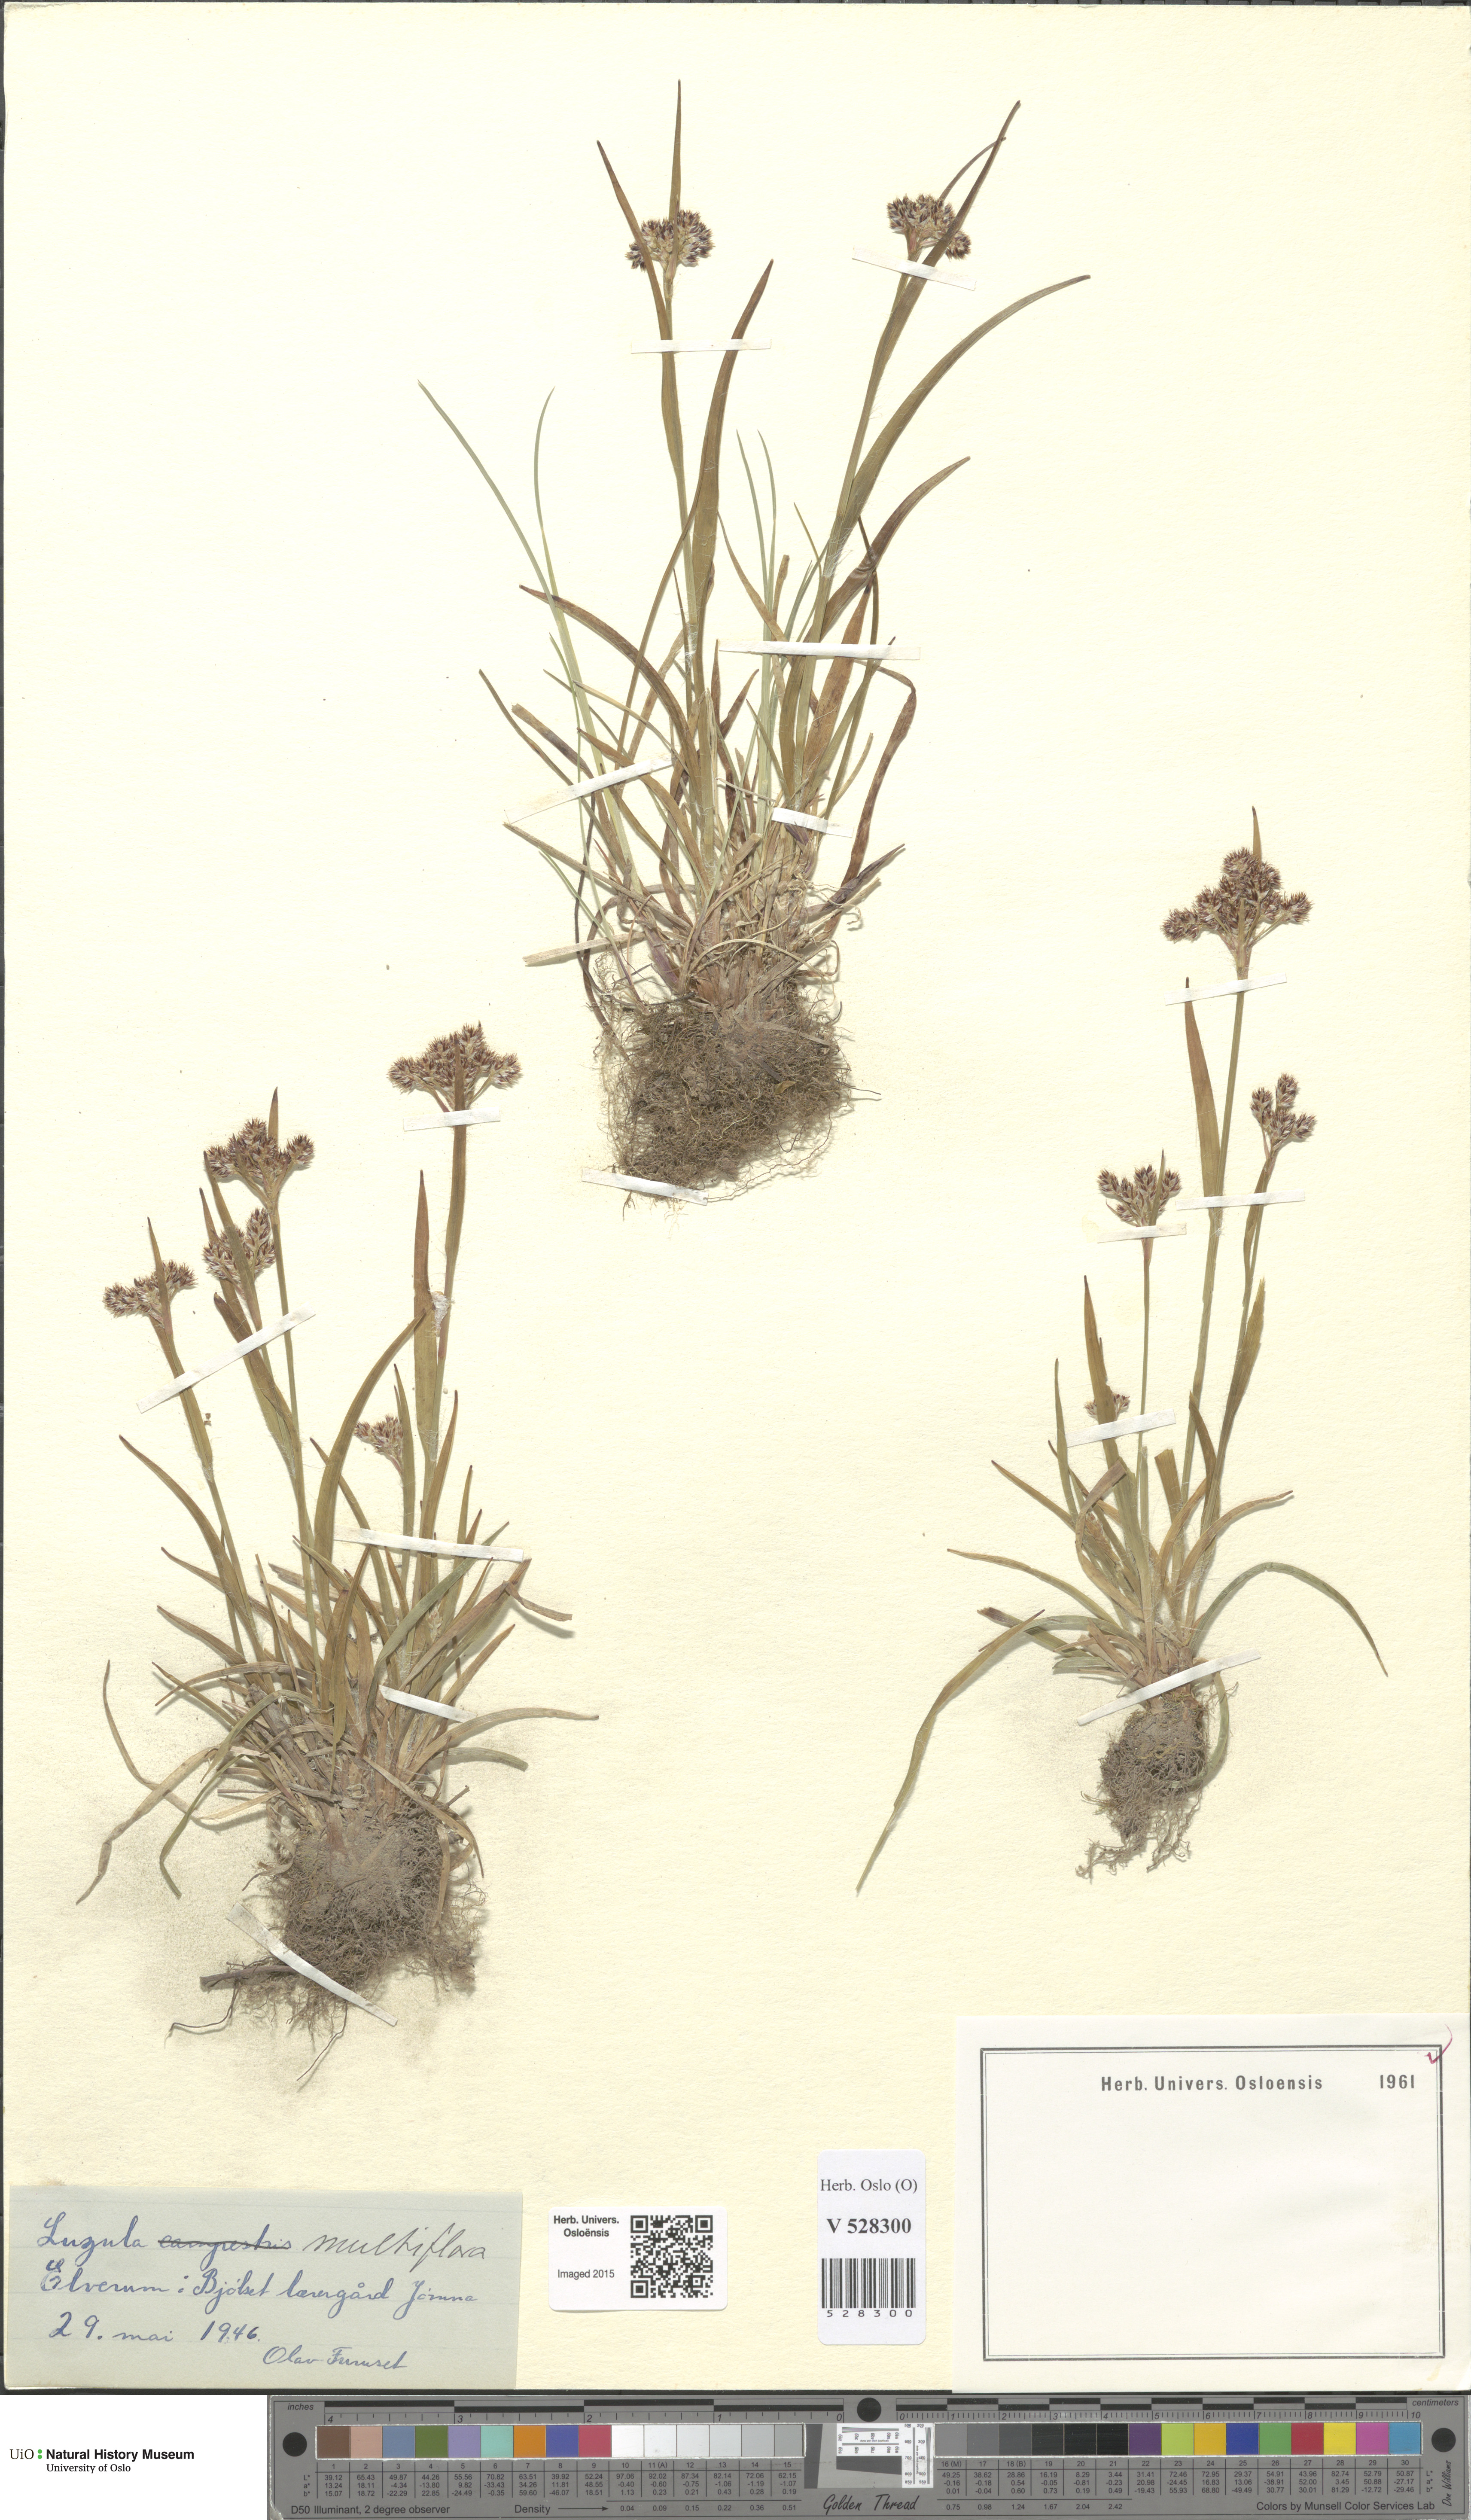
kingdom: Plantae
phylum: Tracheophyta
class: Liliopsida
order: Poales
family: Juncaceae
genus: Luzula
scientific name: Luzula multiflora
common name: Heath wood-rush
